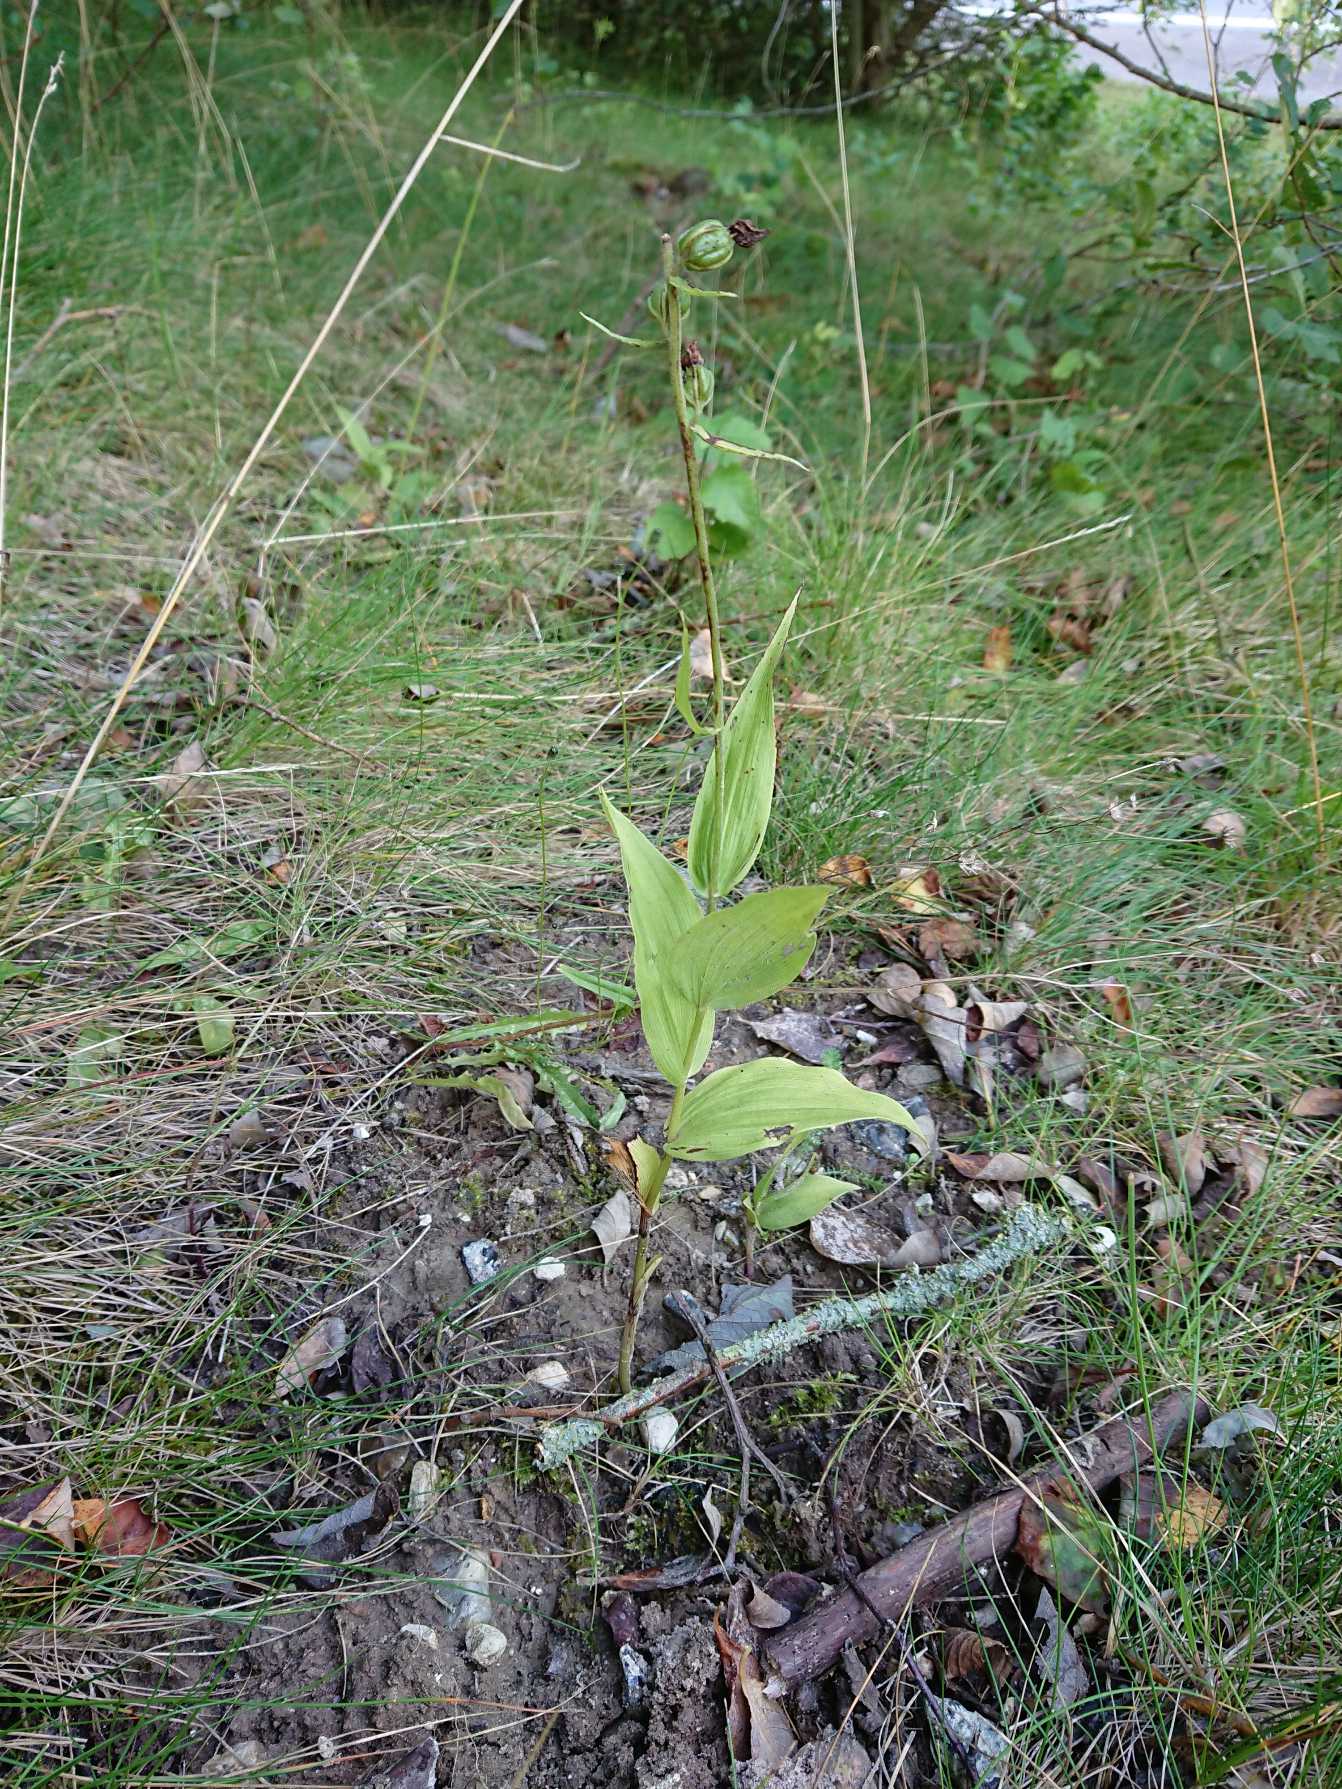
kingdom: Plantae
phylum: Tracheophyta
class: Liliopsida
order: Asparagales
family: Orchidaceae
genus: Epipactis
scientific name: Epipactis helleborine
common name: Skov-hullæbe
